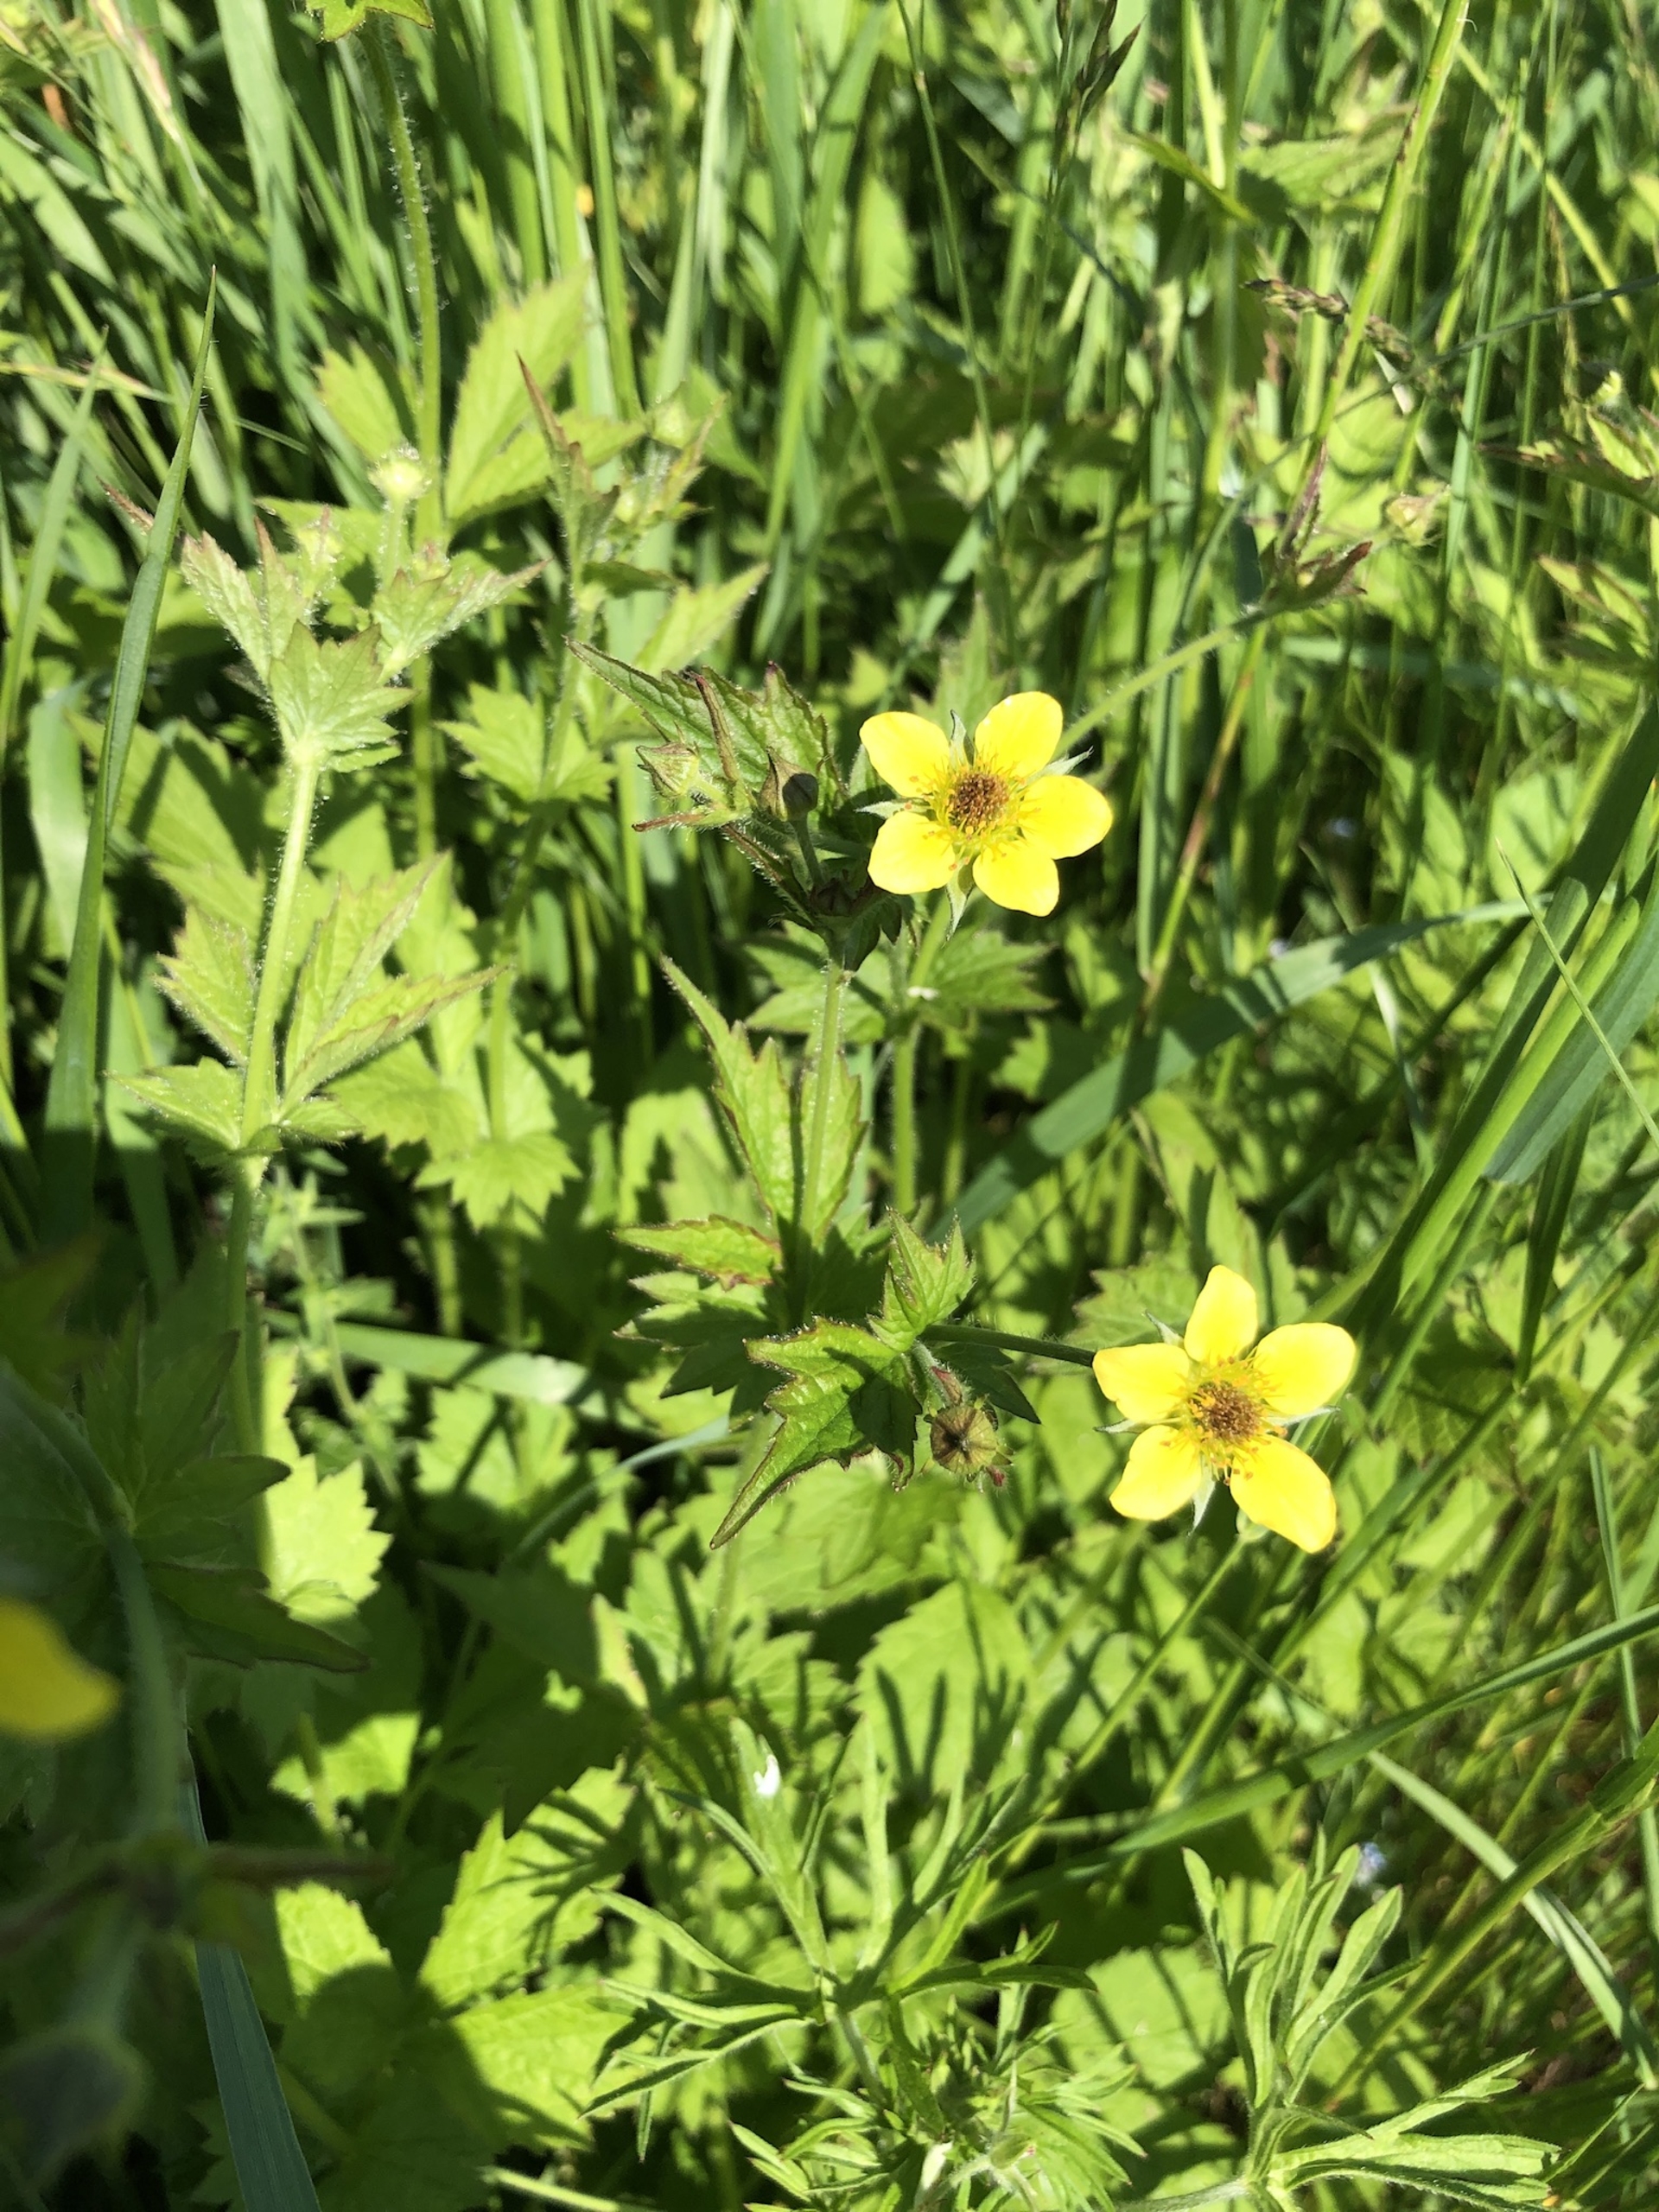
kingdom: Plantae
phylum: Tracheophyta
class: Magnoliopsida
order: Rosales
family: Rosaceae
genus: Geum
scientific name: Geum urbanum
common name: Feber-nellikerod
